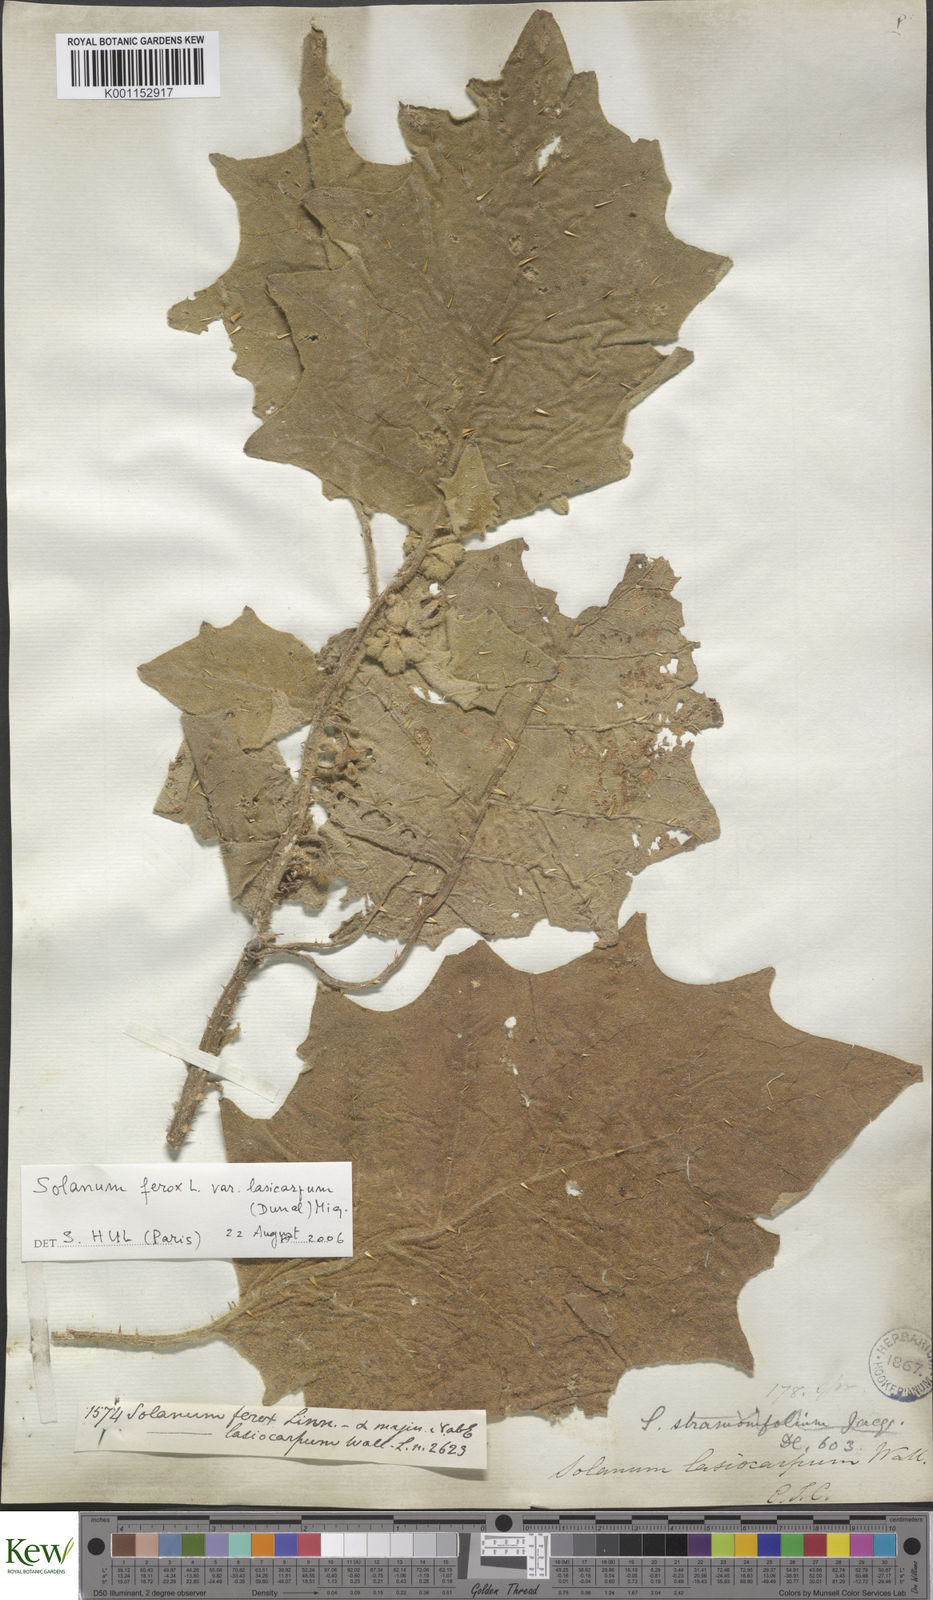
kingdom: Plantae
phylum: Tracheophyta
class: Magnoliopsida
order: Solanales
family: Solanaceae
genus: Solanum
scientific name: Solanum
